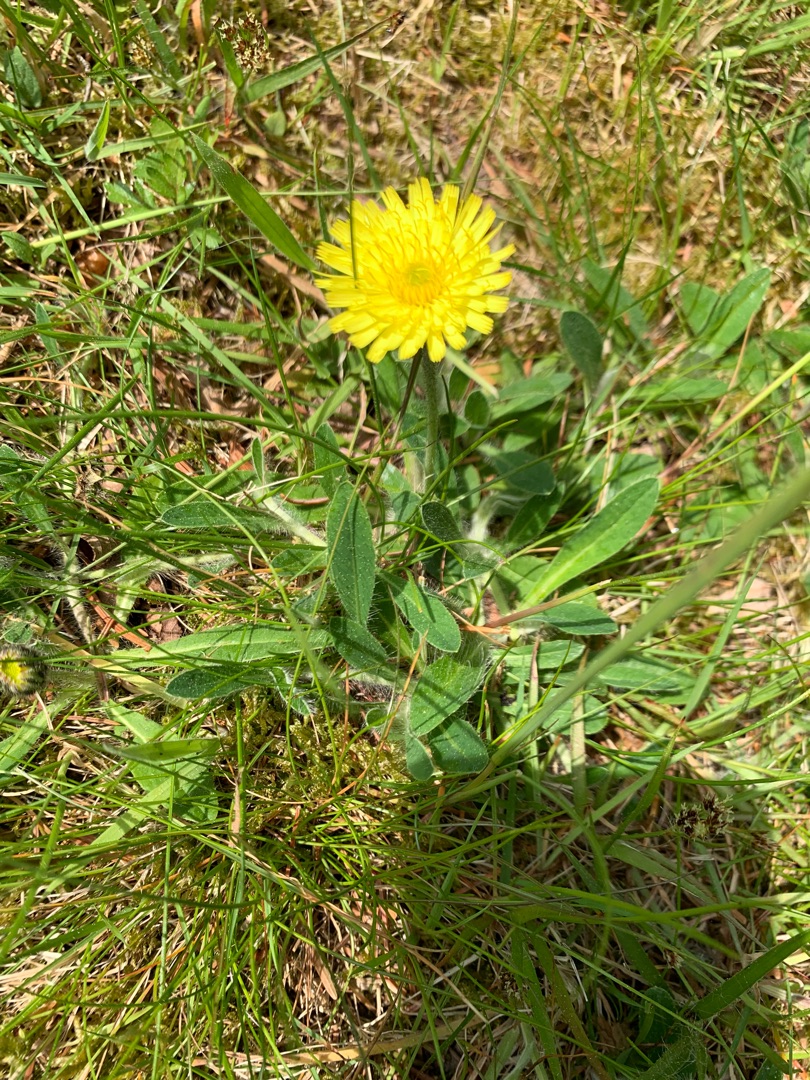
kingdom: Plantae
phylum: Tracheophyta
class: Magnoliopsida
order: Asterales
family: Asteraceae
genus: Pilosella
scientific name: Pilosella officinarum
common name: Håret høgeurt
